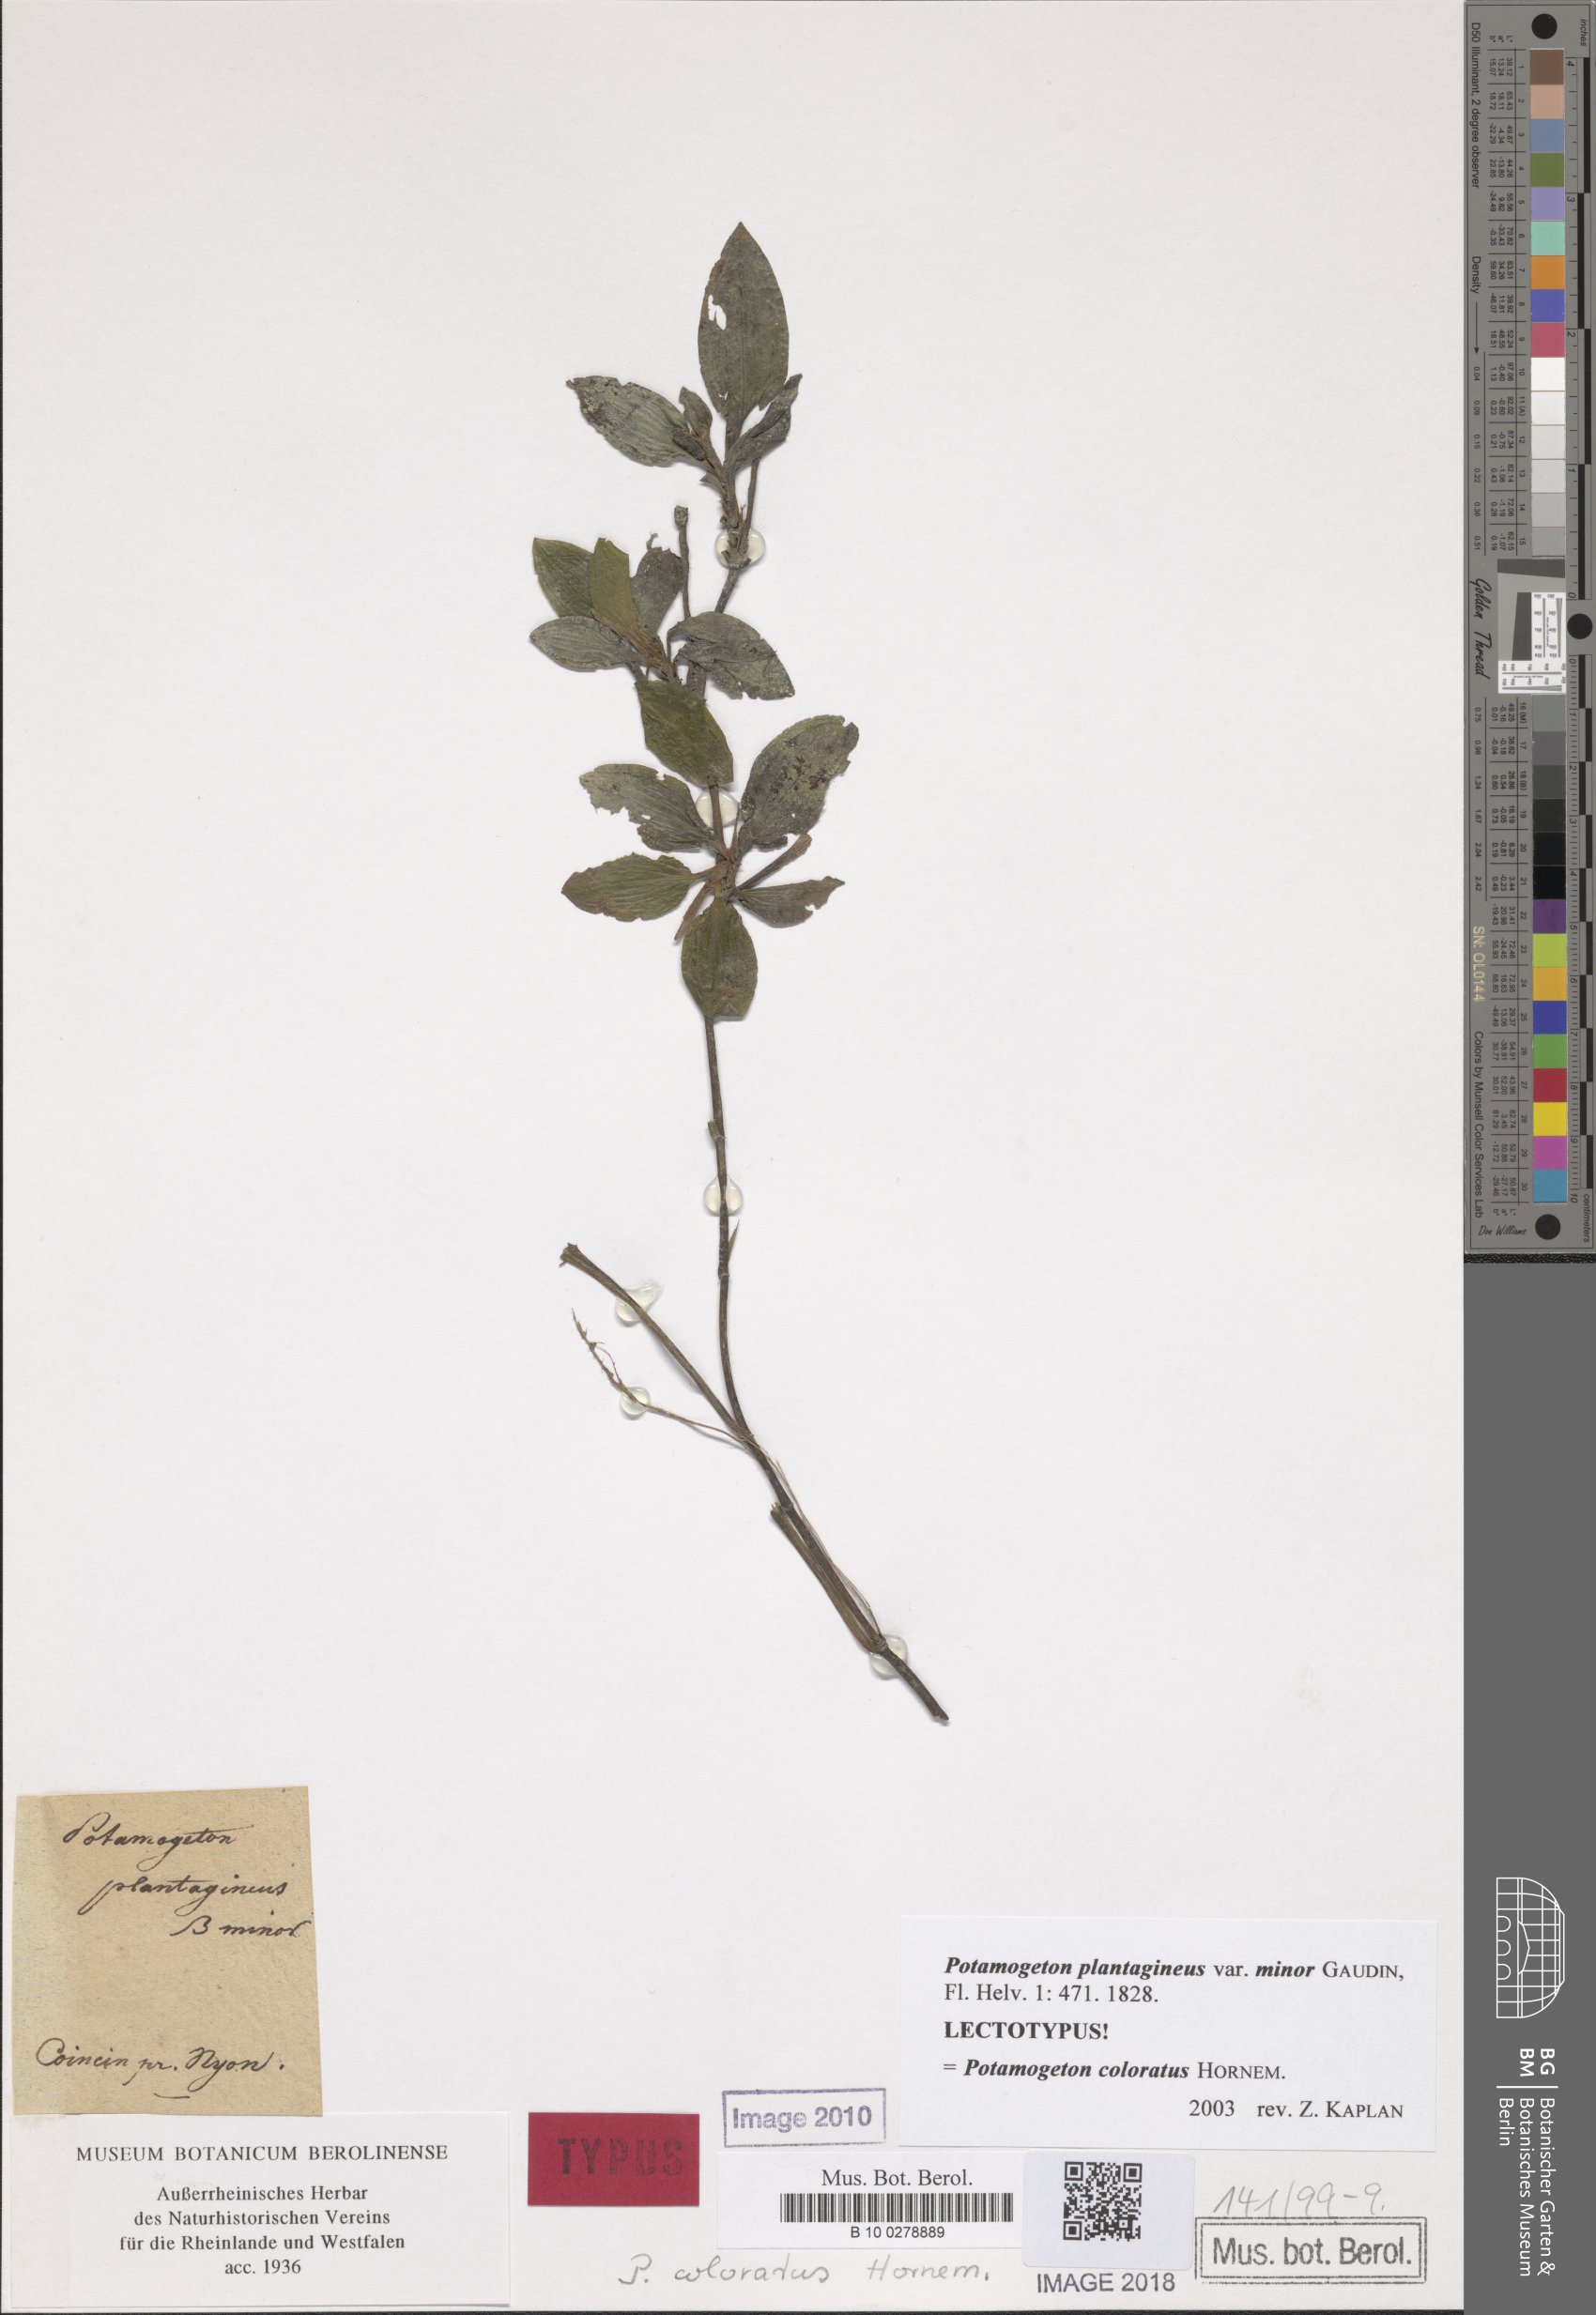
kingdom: Plantae
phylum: Tracheophyta
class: Liliopsida
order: Alismatales
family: Potamogetonaceae
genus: Potamogeton
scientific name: Potamogeton coloratus
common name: Fen pondweed
